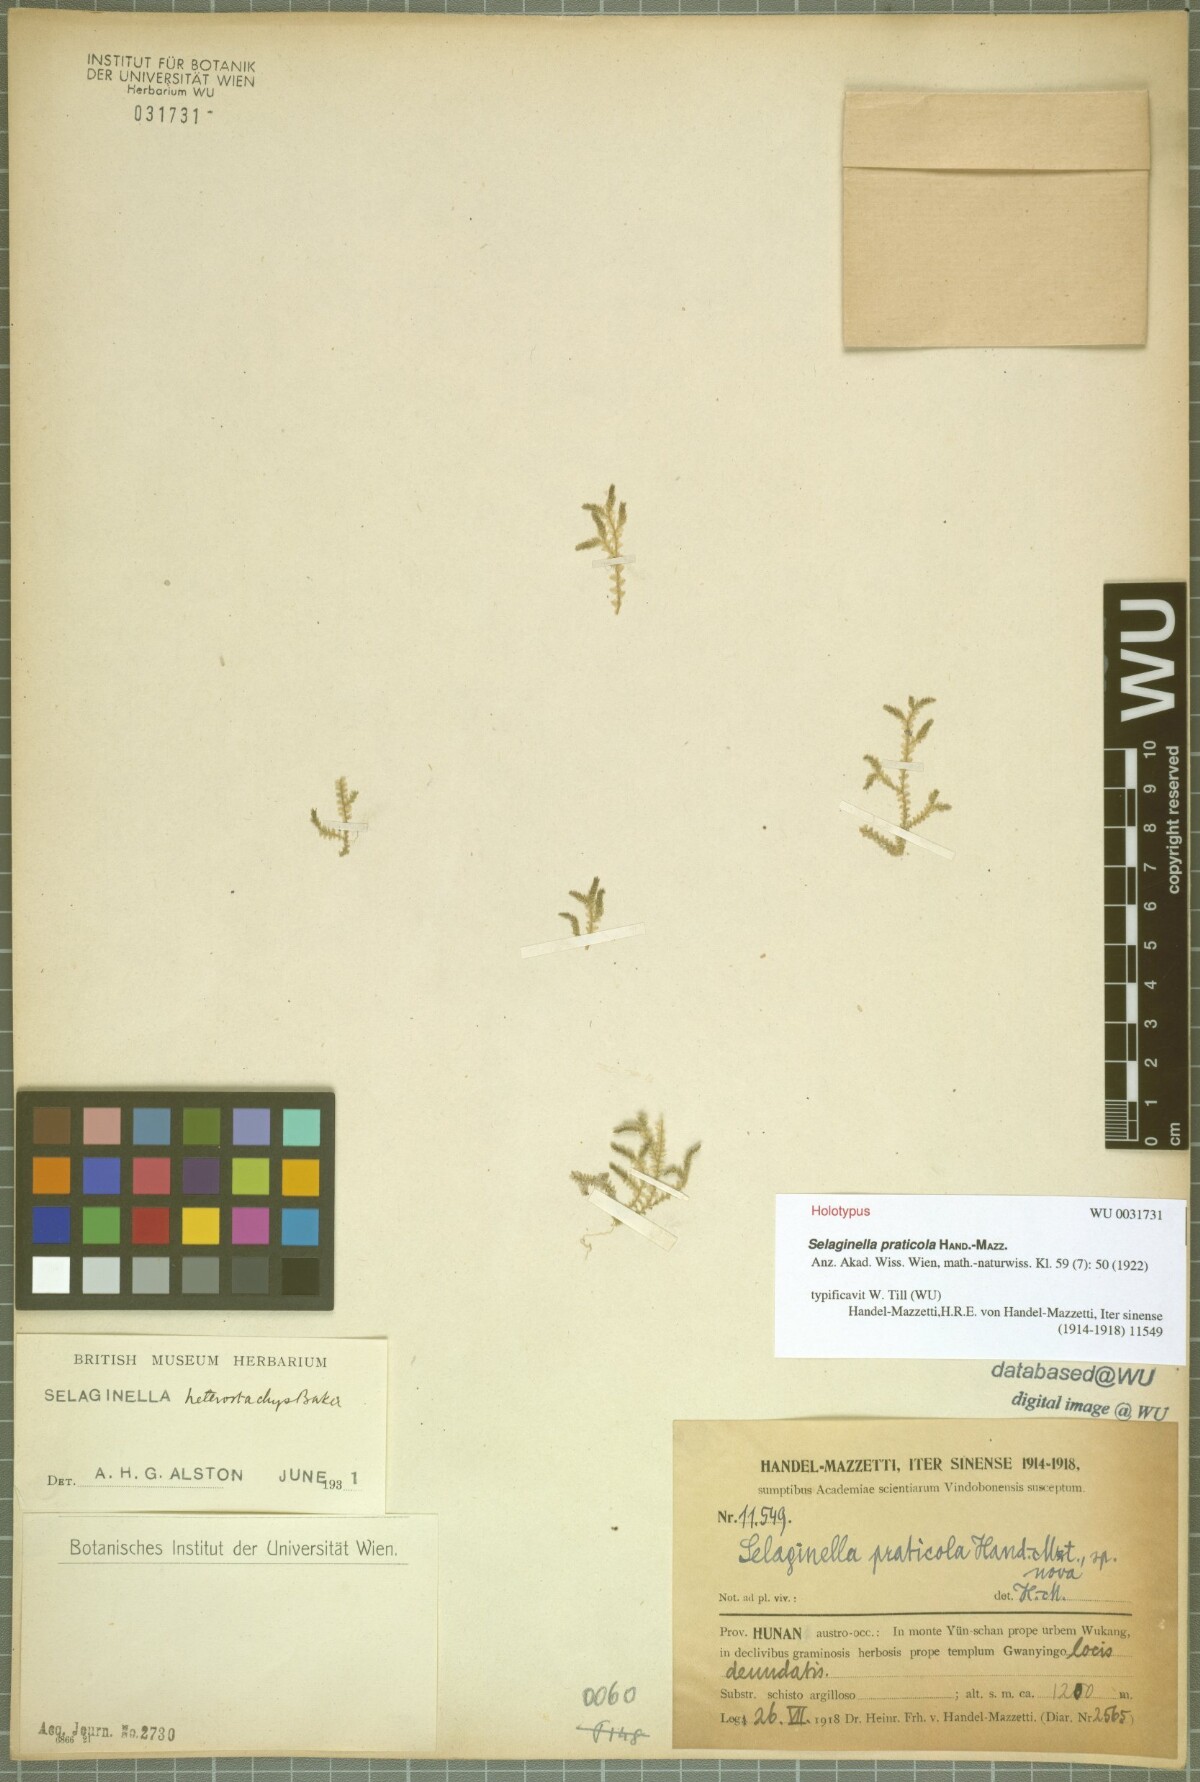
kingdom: Plantae
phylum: Tracheophyta
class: Lycopodiopsida
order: Selaginellales
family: Selaginellaceae
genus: Selaginella
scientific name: Selaginella heterostachys
